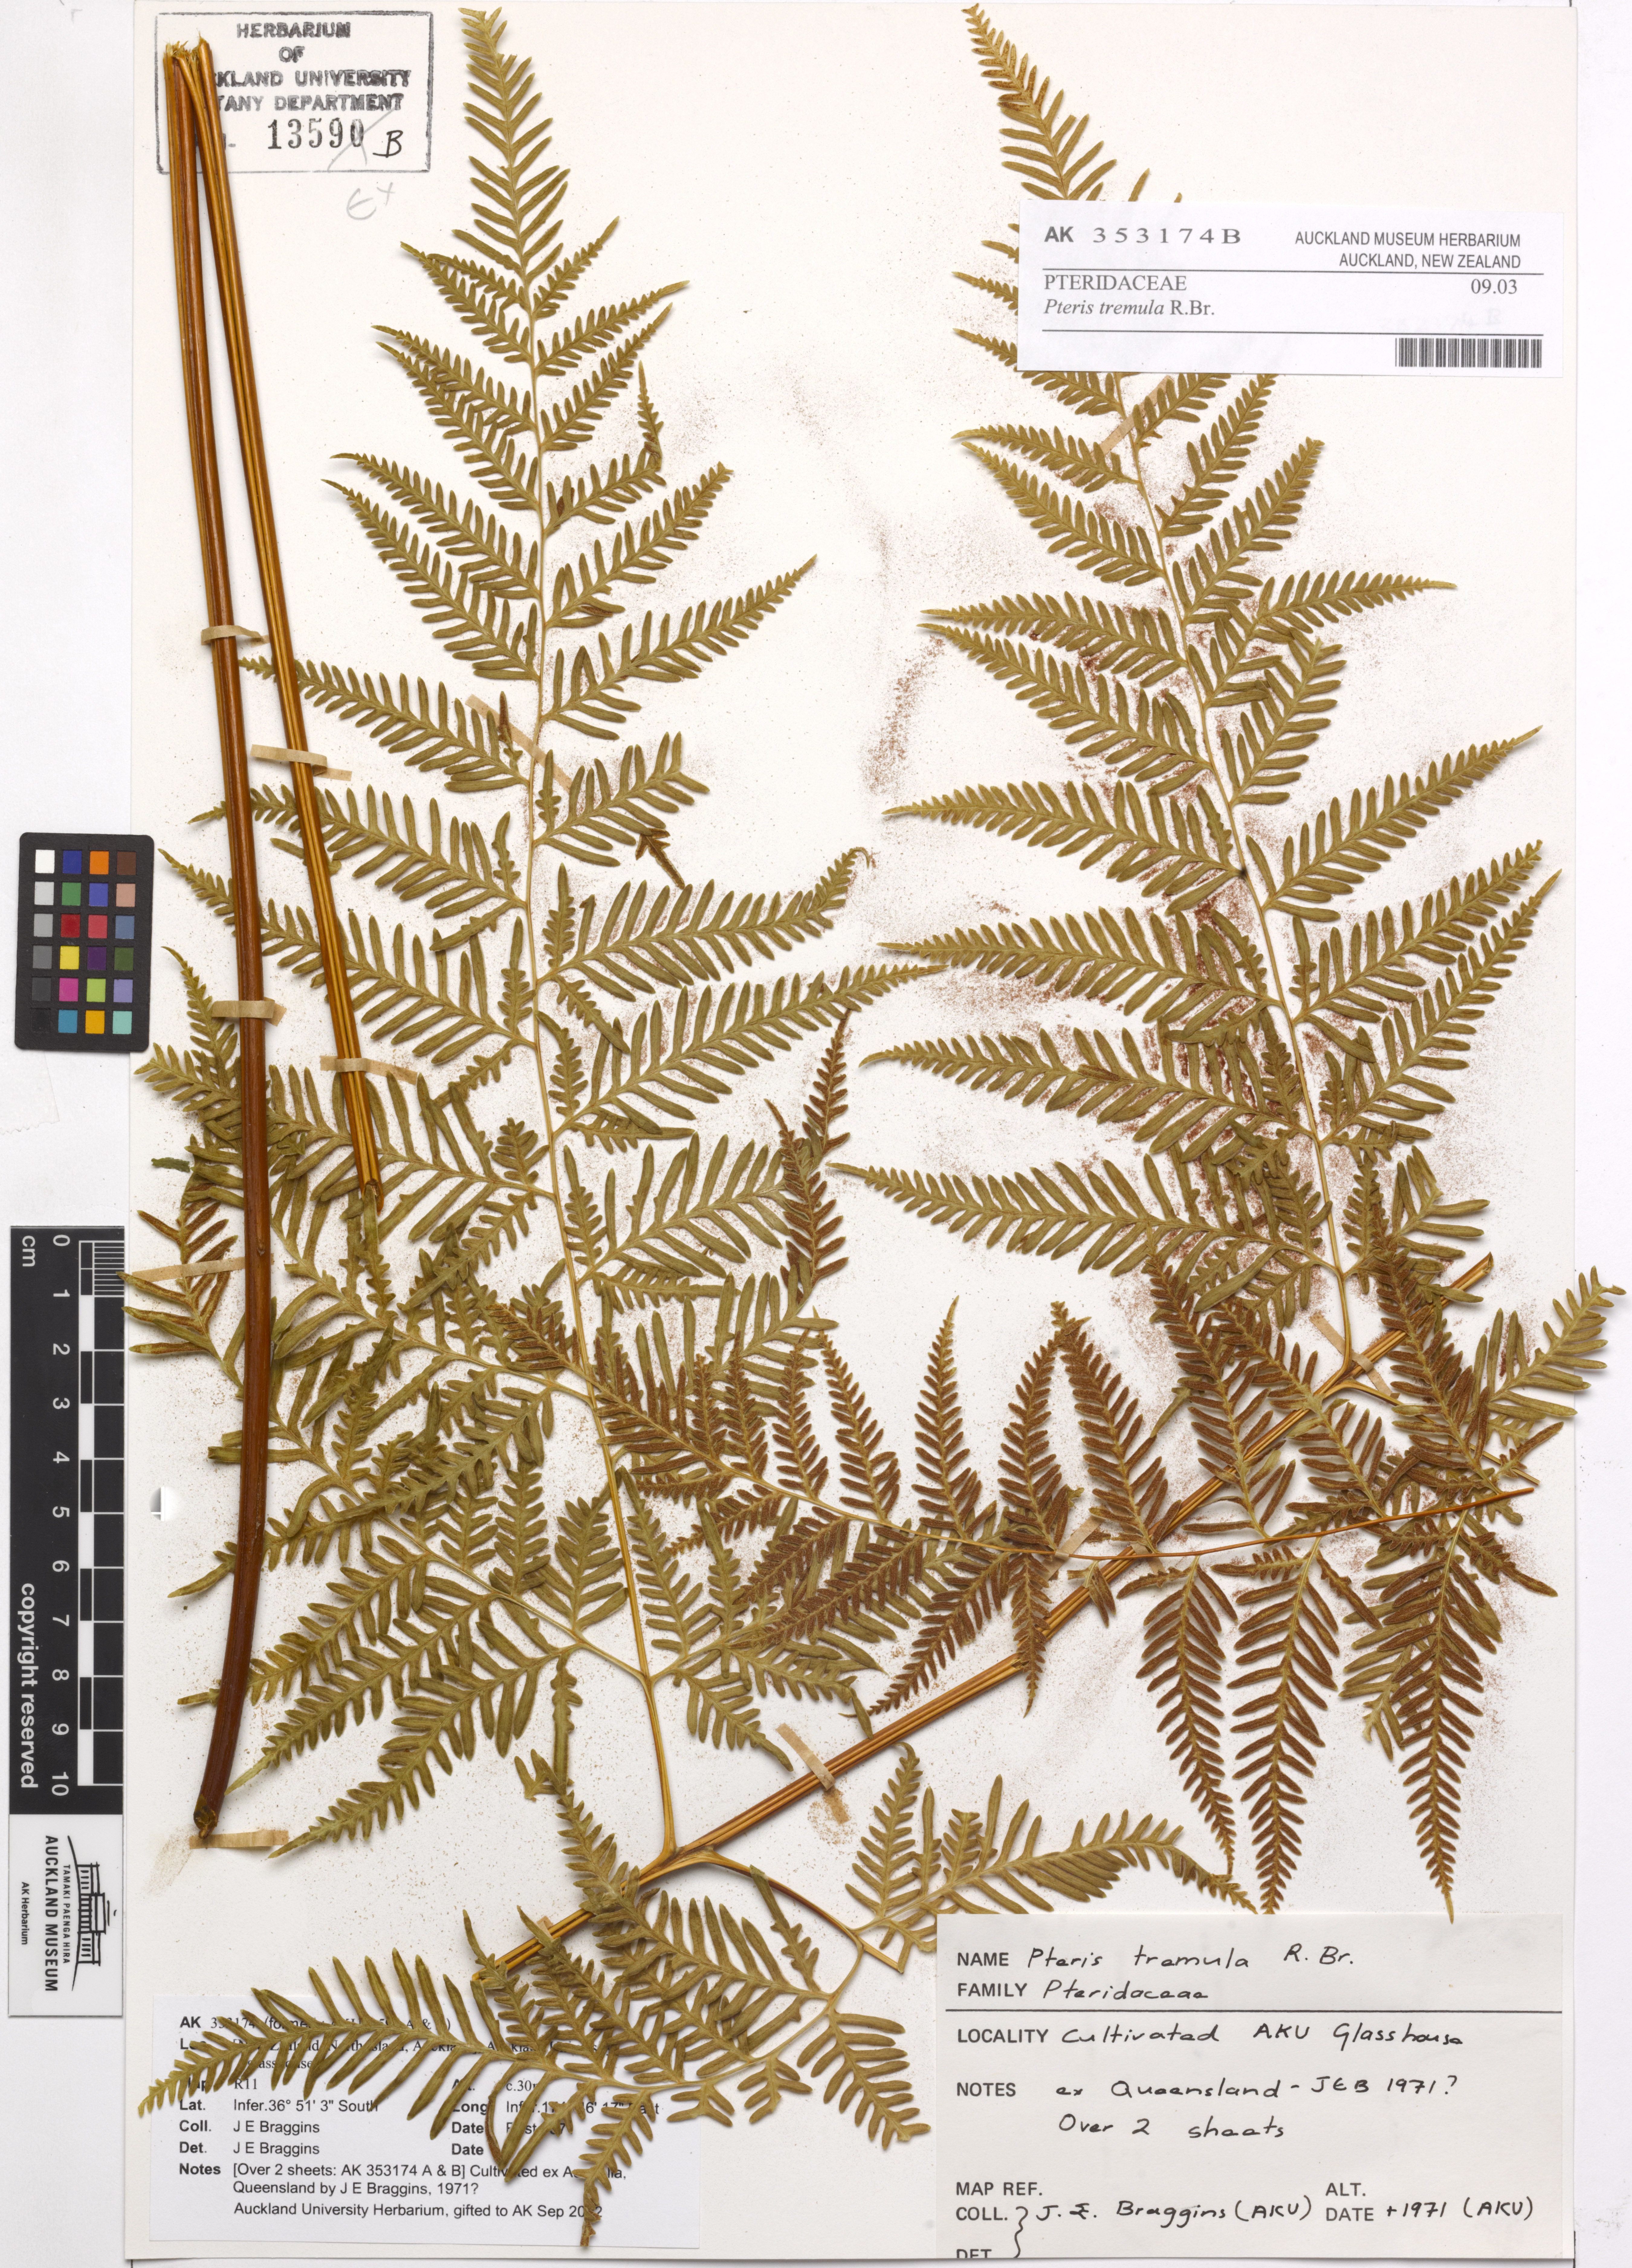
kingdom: Plantae
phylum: Tracheophyta
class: Polypodiopsida
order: Polypodiales
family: Pteridaceae
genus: Pteris
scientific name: Pteris tremula
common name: Australian brake
